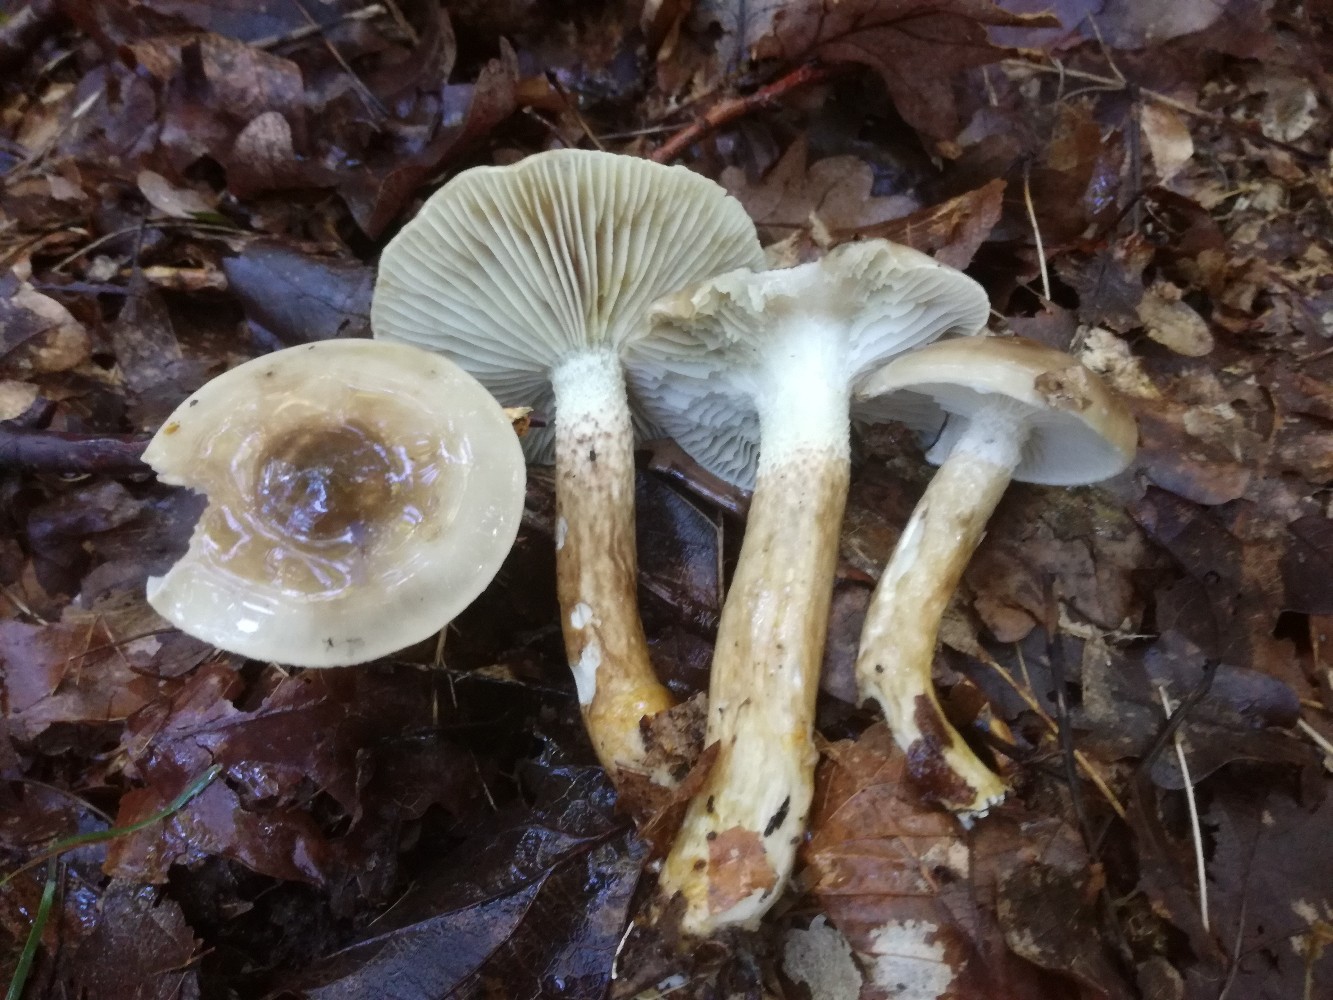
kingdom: Fungi
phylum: Basidiomycota
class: Agaricomycetes
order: Agaricales
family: Hygrophoraceae
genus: Hygrophorus
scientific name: Hygrophorus glutinifer
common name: tvefarvet sneglehat
